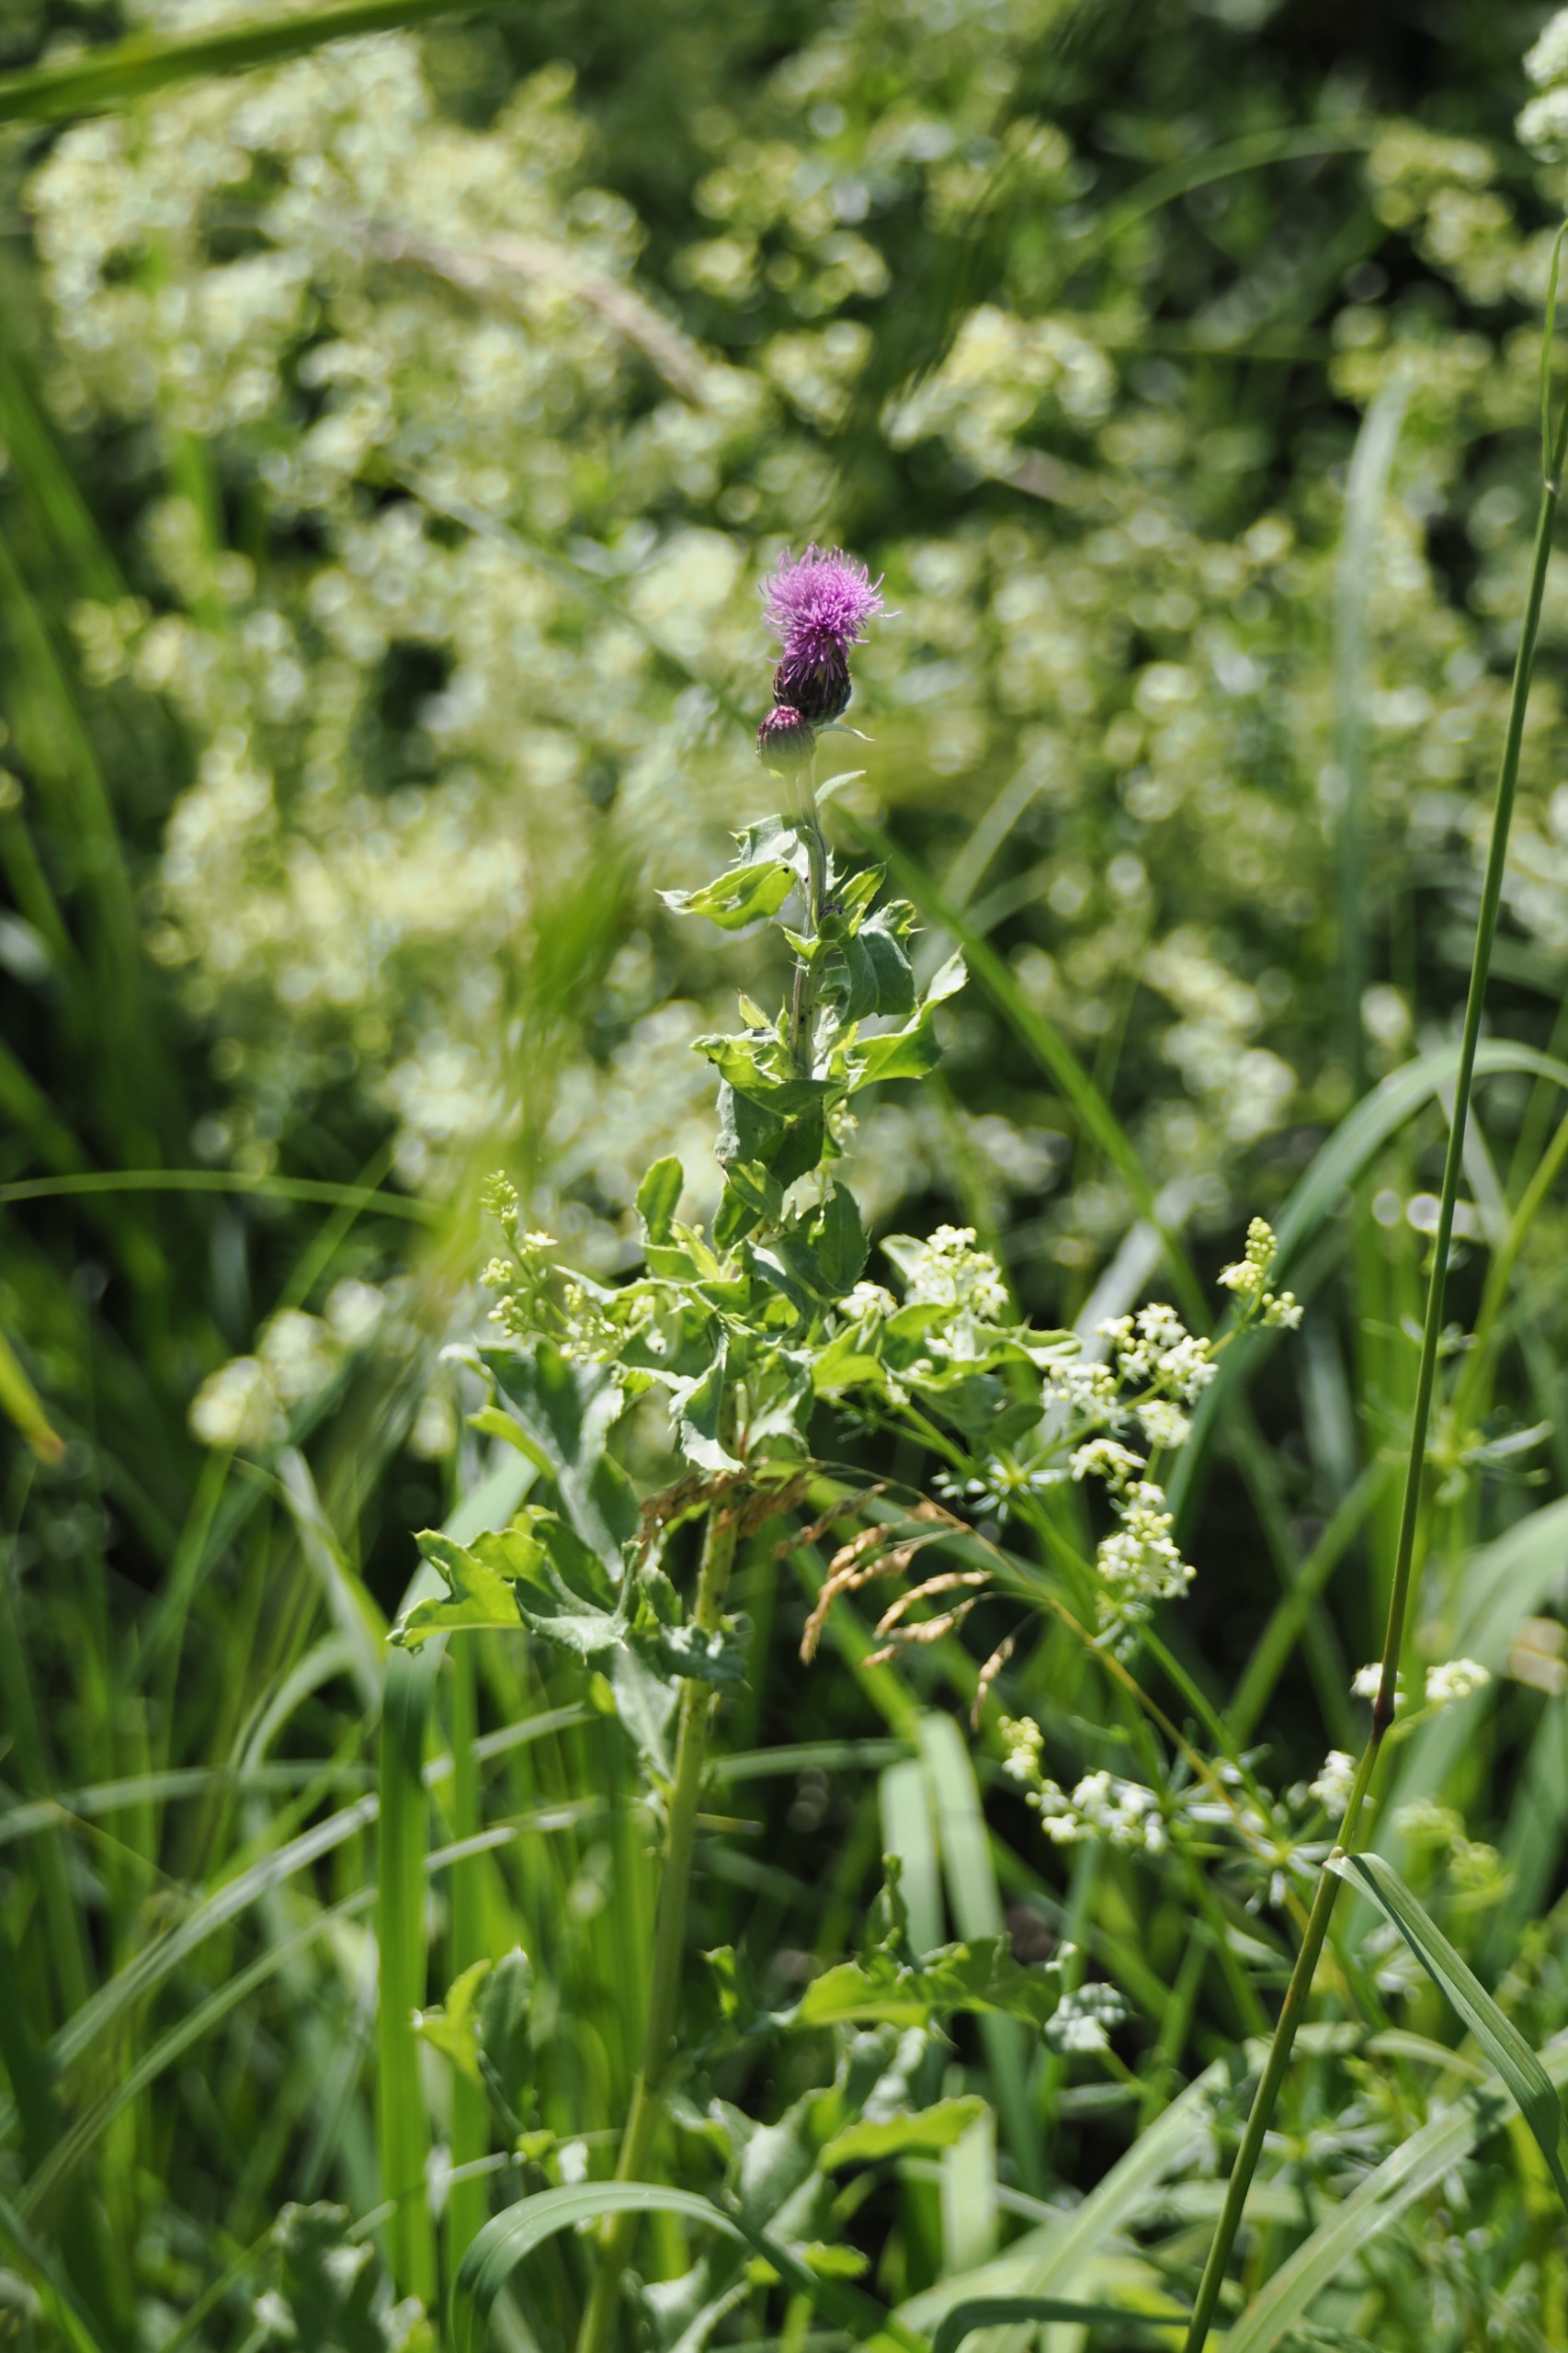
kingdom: Plantae
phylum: Tracheophyta
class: Magnoliopsida
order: Asterales
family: Asteraceae
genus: Cirsium
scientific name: Cirsium arvense
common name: Ager-tidsel
